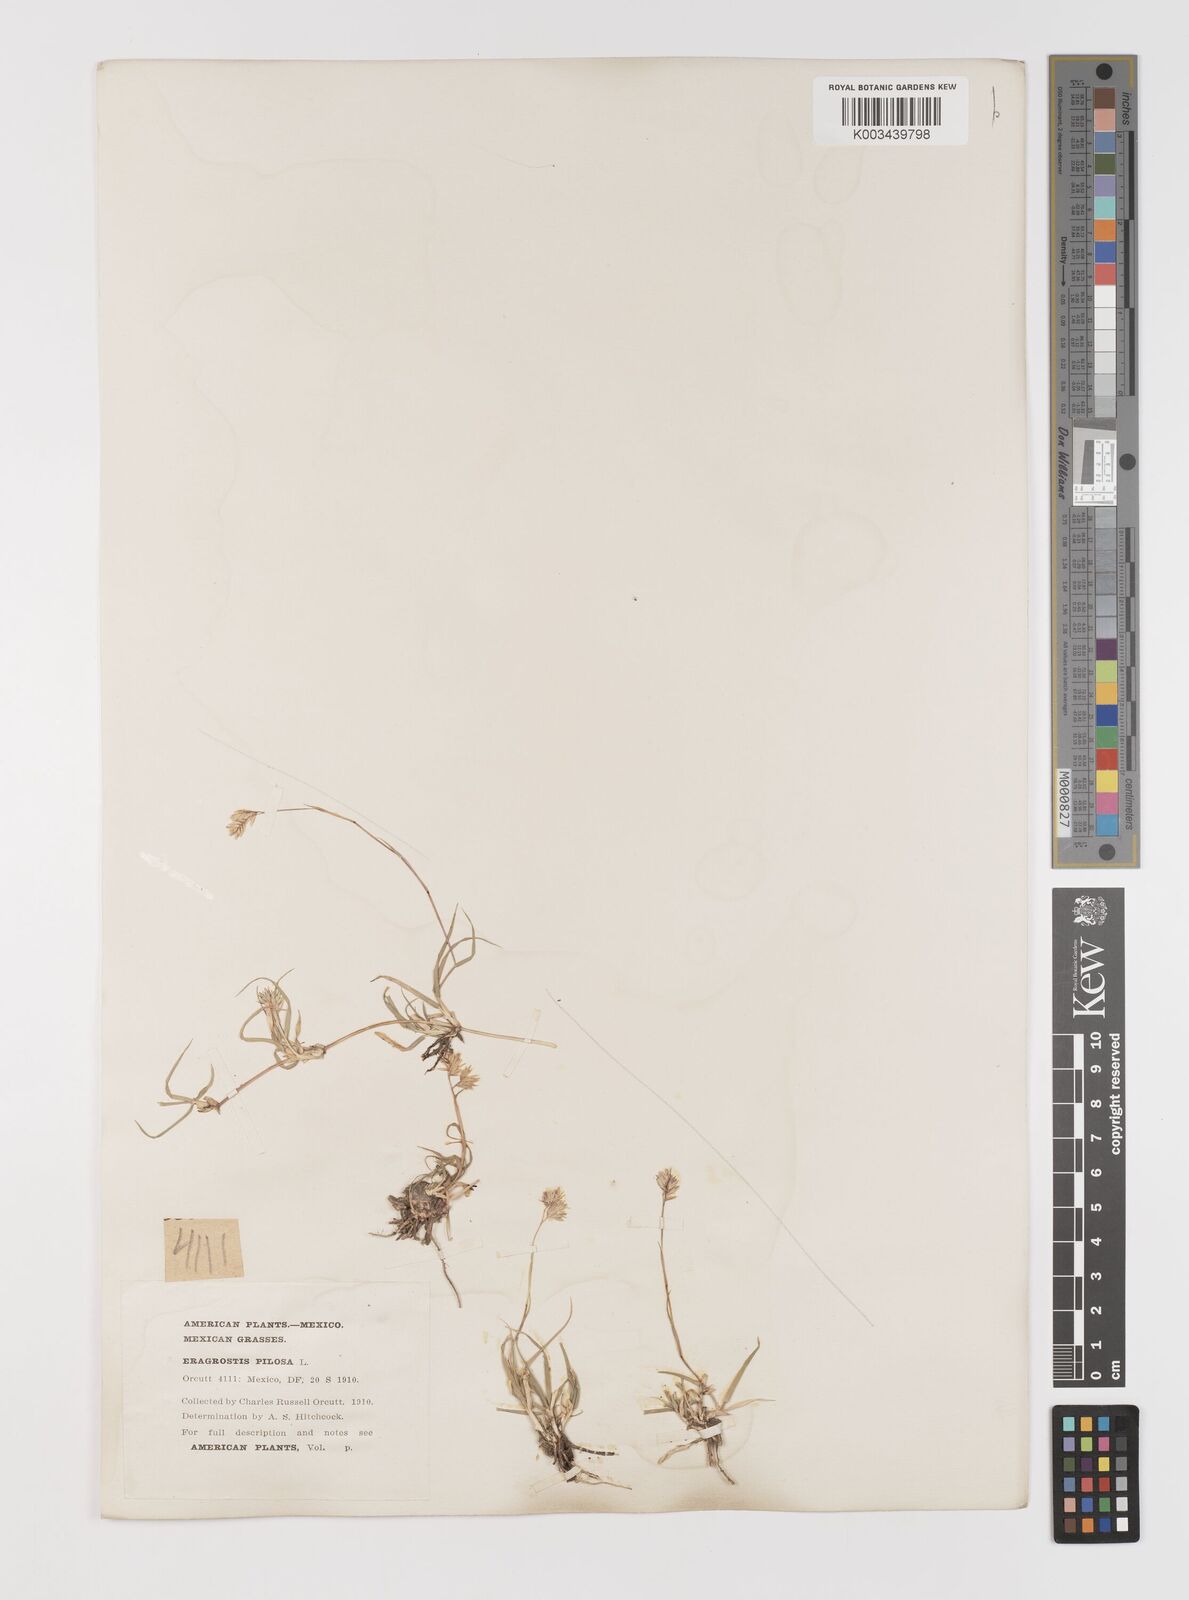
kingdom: Plantae
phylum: Tracheophyta
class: Liliopsida
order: Poales
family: Poaceae
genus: Bouteloua
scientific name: Bouteloua dactyloides
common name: Buffalo grass
